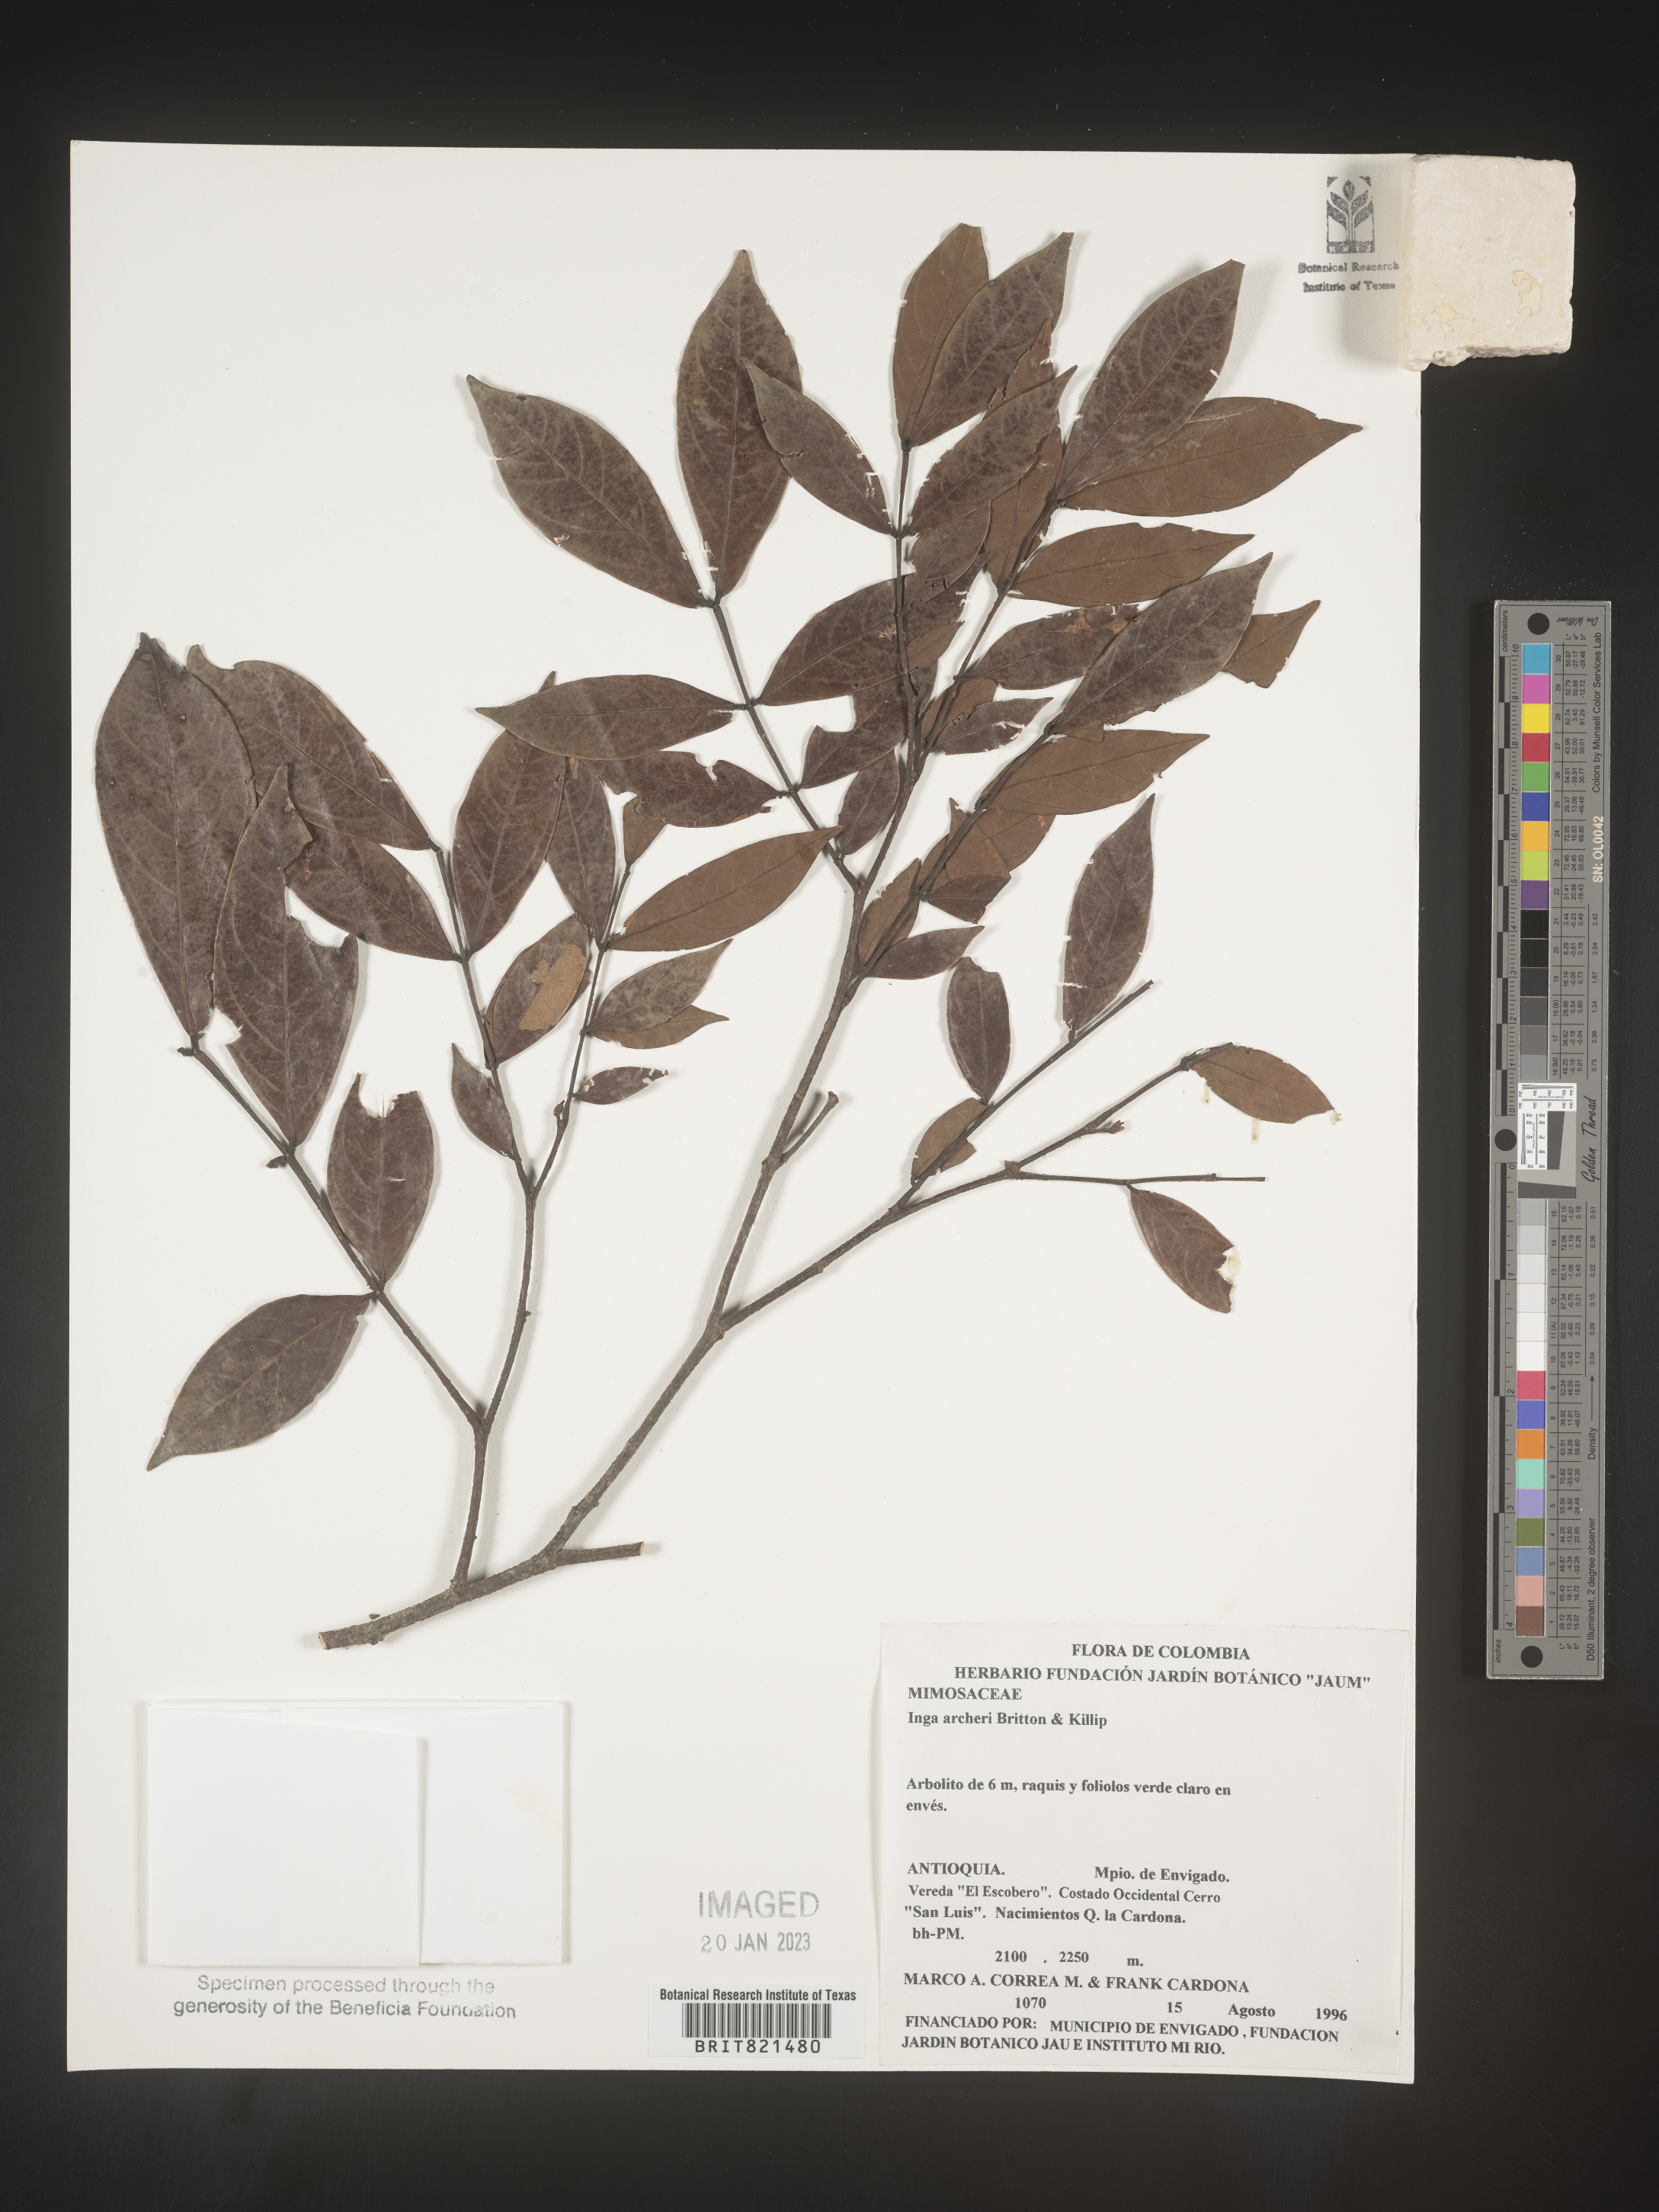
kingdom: Plantae
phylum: Tracheophyta
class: Magnoliopsida
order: Fabales
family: Fabaceae
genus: Inga
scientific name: Inga
